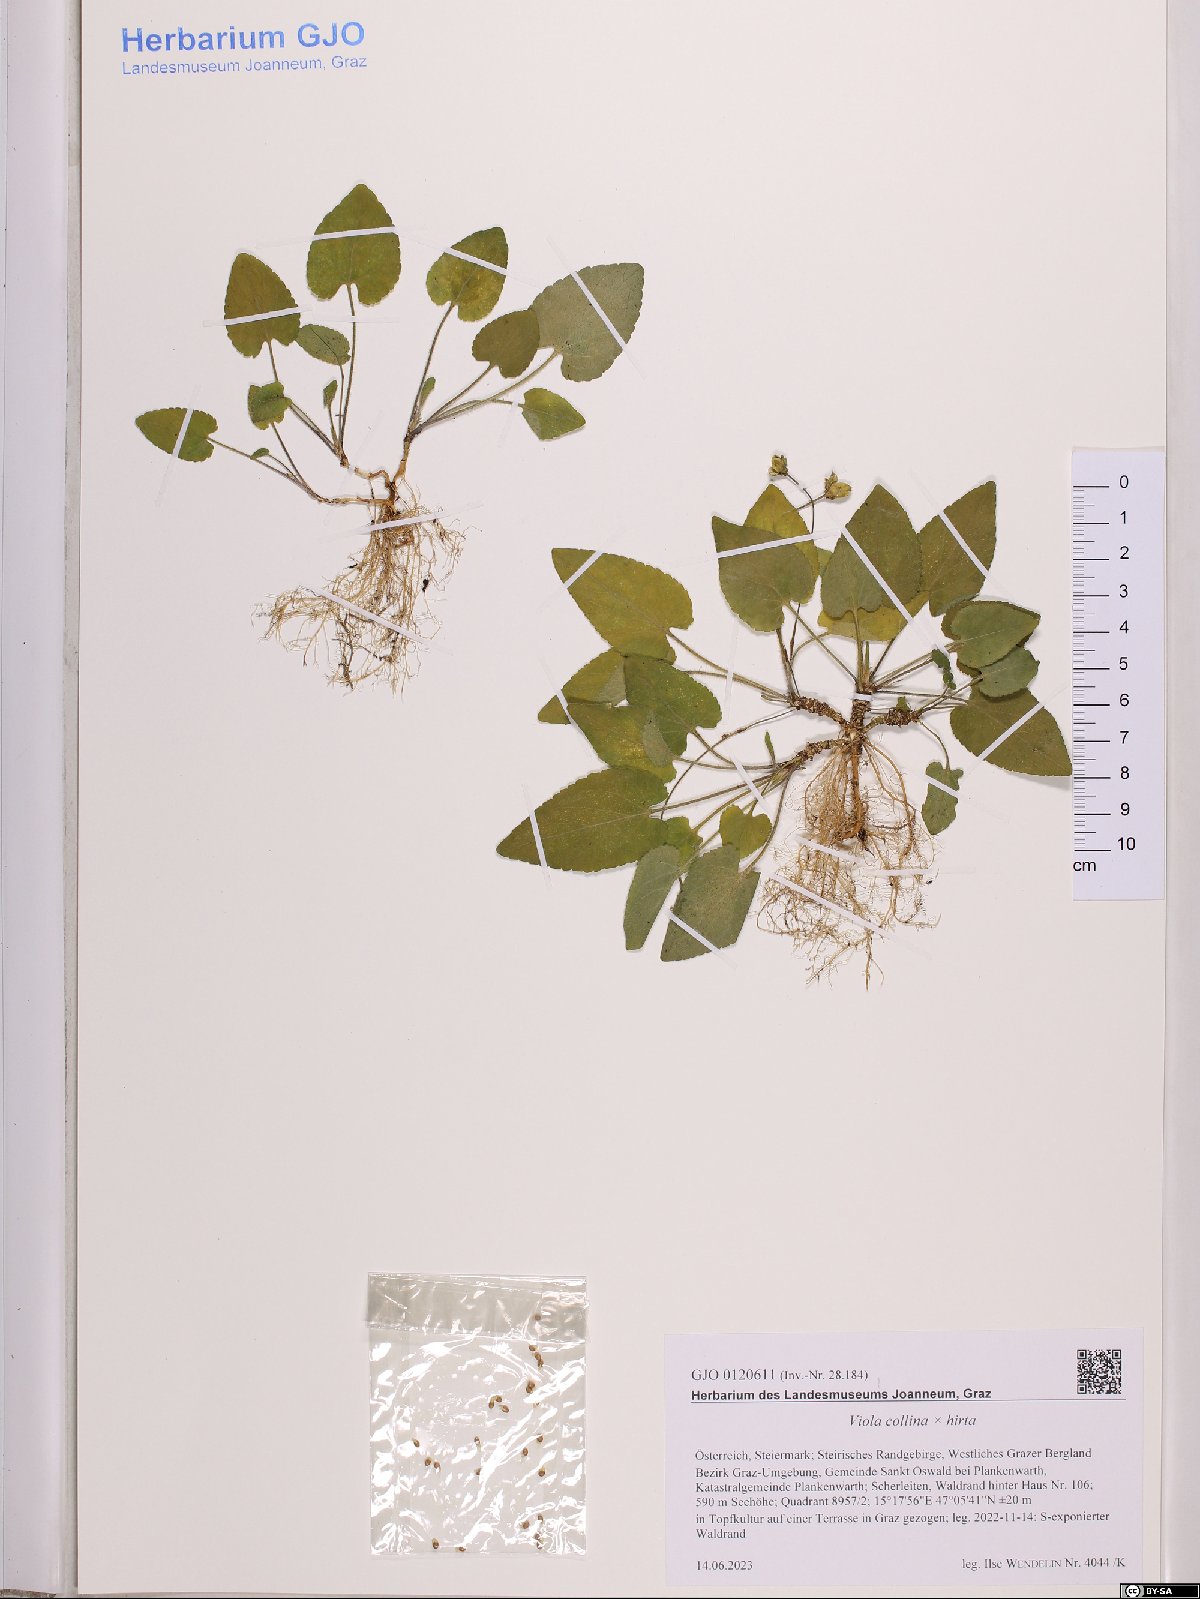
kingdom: Plantae
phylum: Tracheophyta
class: Magnoliopsida
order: Malpighiales
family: Violaceae
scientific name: Violaceae
